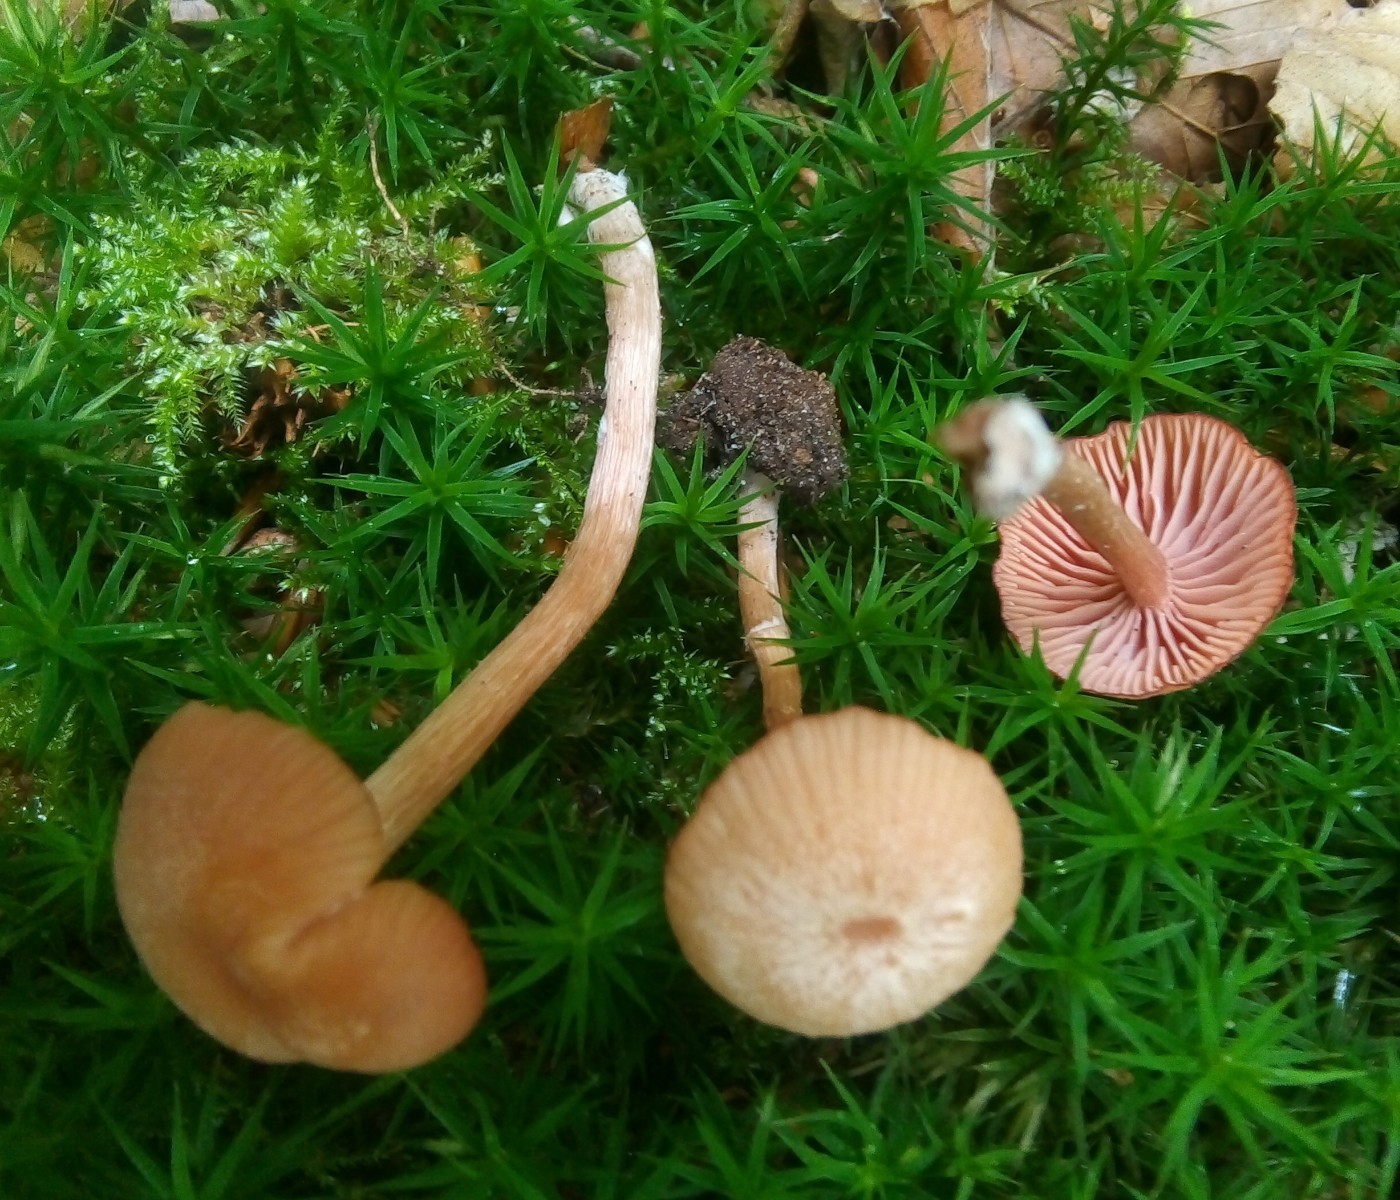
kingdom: Fungi
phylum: Basidiomycota
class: Agaricomycetes
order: Agaricales
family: Hydnangiaceae
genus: Laccaria
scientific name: Laccaria laccata
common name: rød ametysthat
